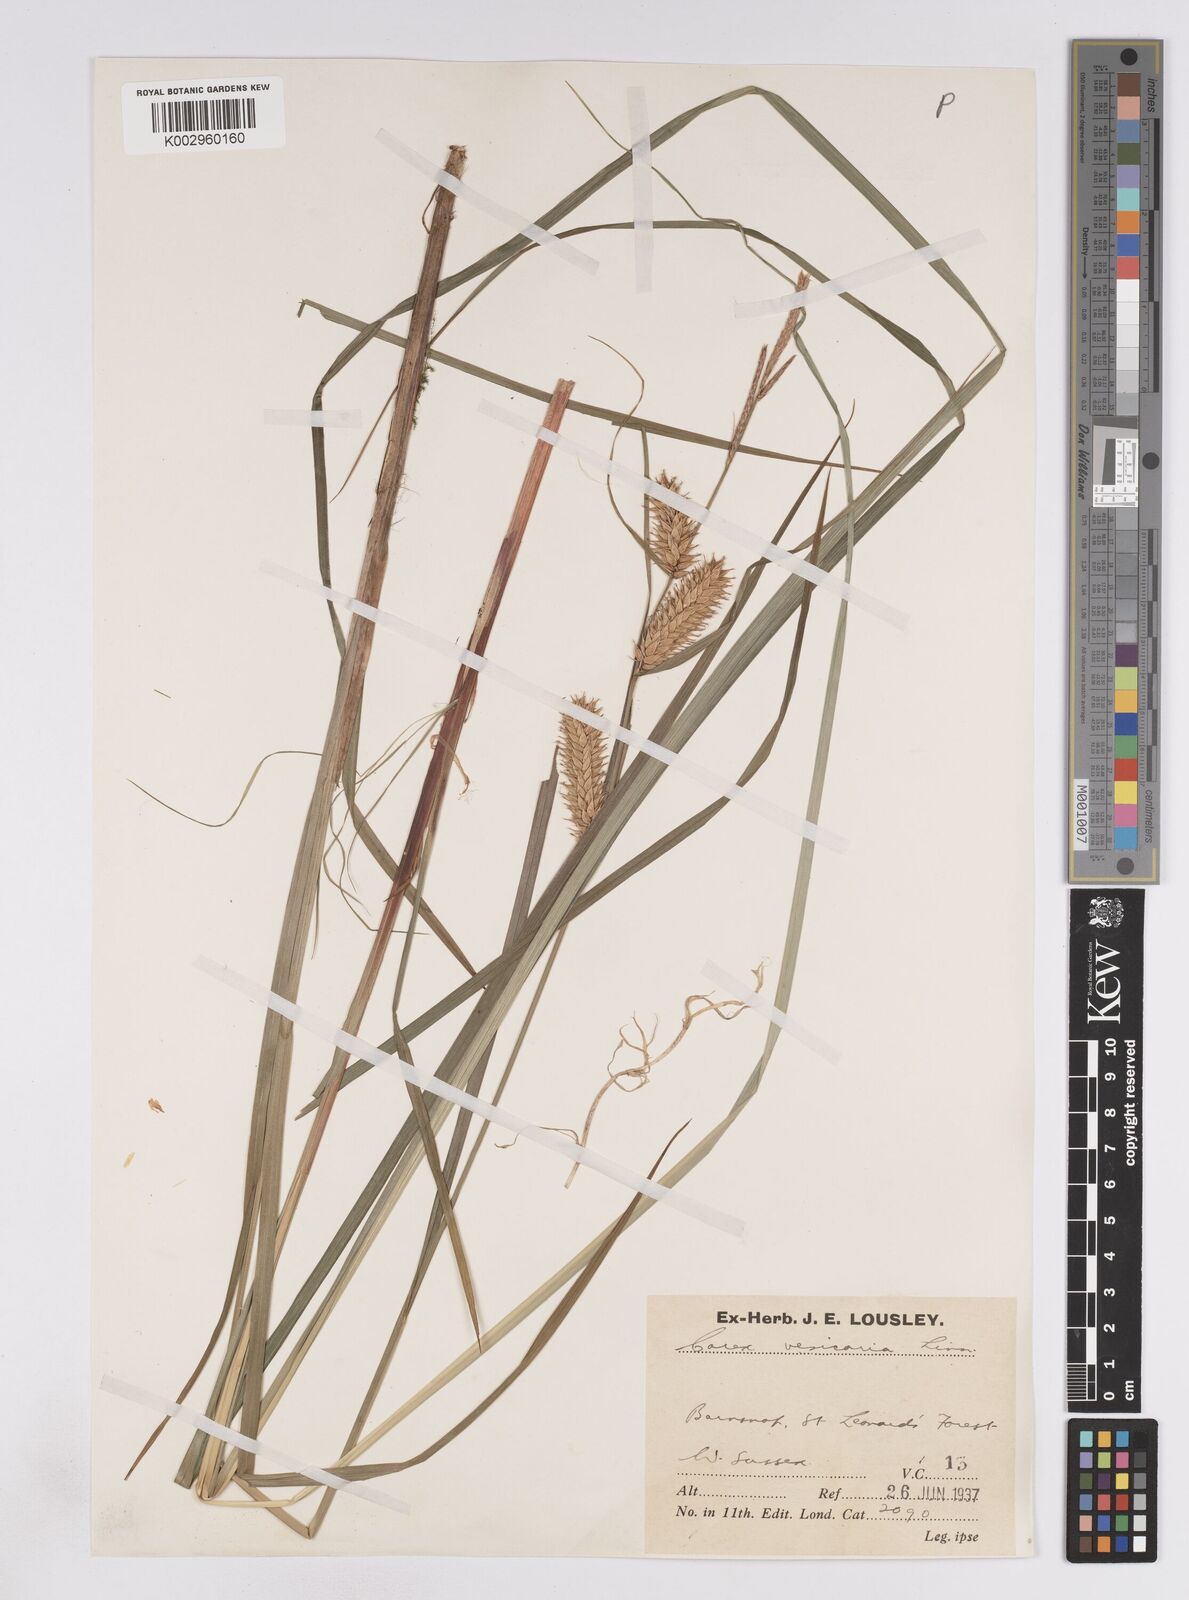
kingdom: Plantae
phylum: Tracheophyta
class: Liliopsida
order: Poales
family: Cyperaceae
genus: Carex
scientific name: Carex vesicaria
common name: Bladder-sedge
